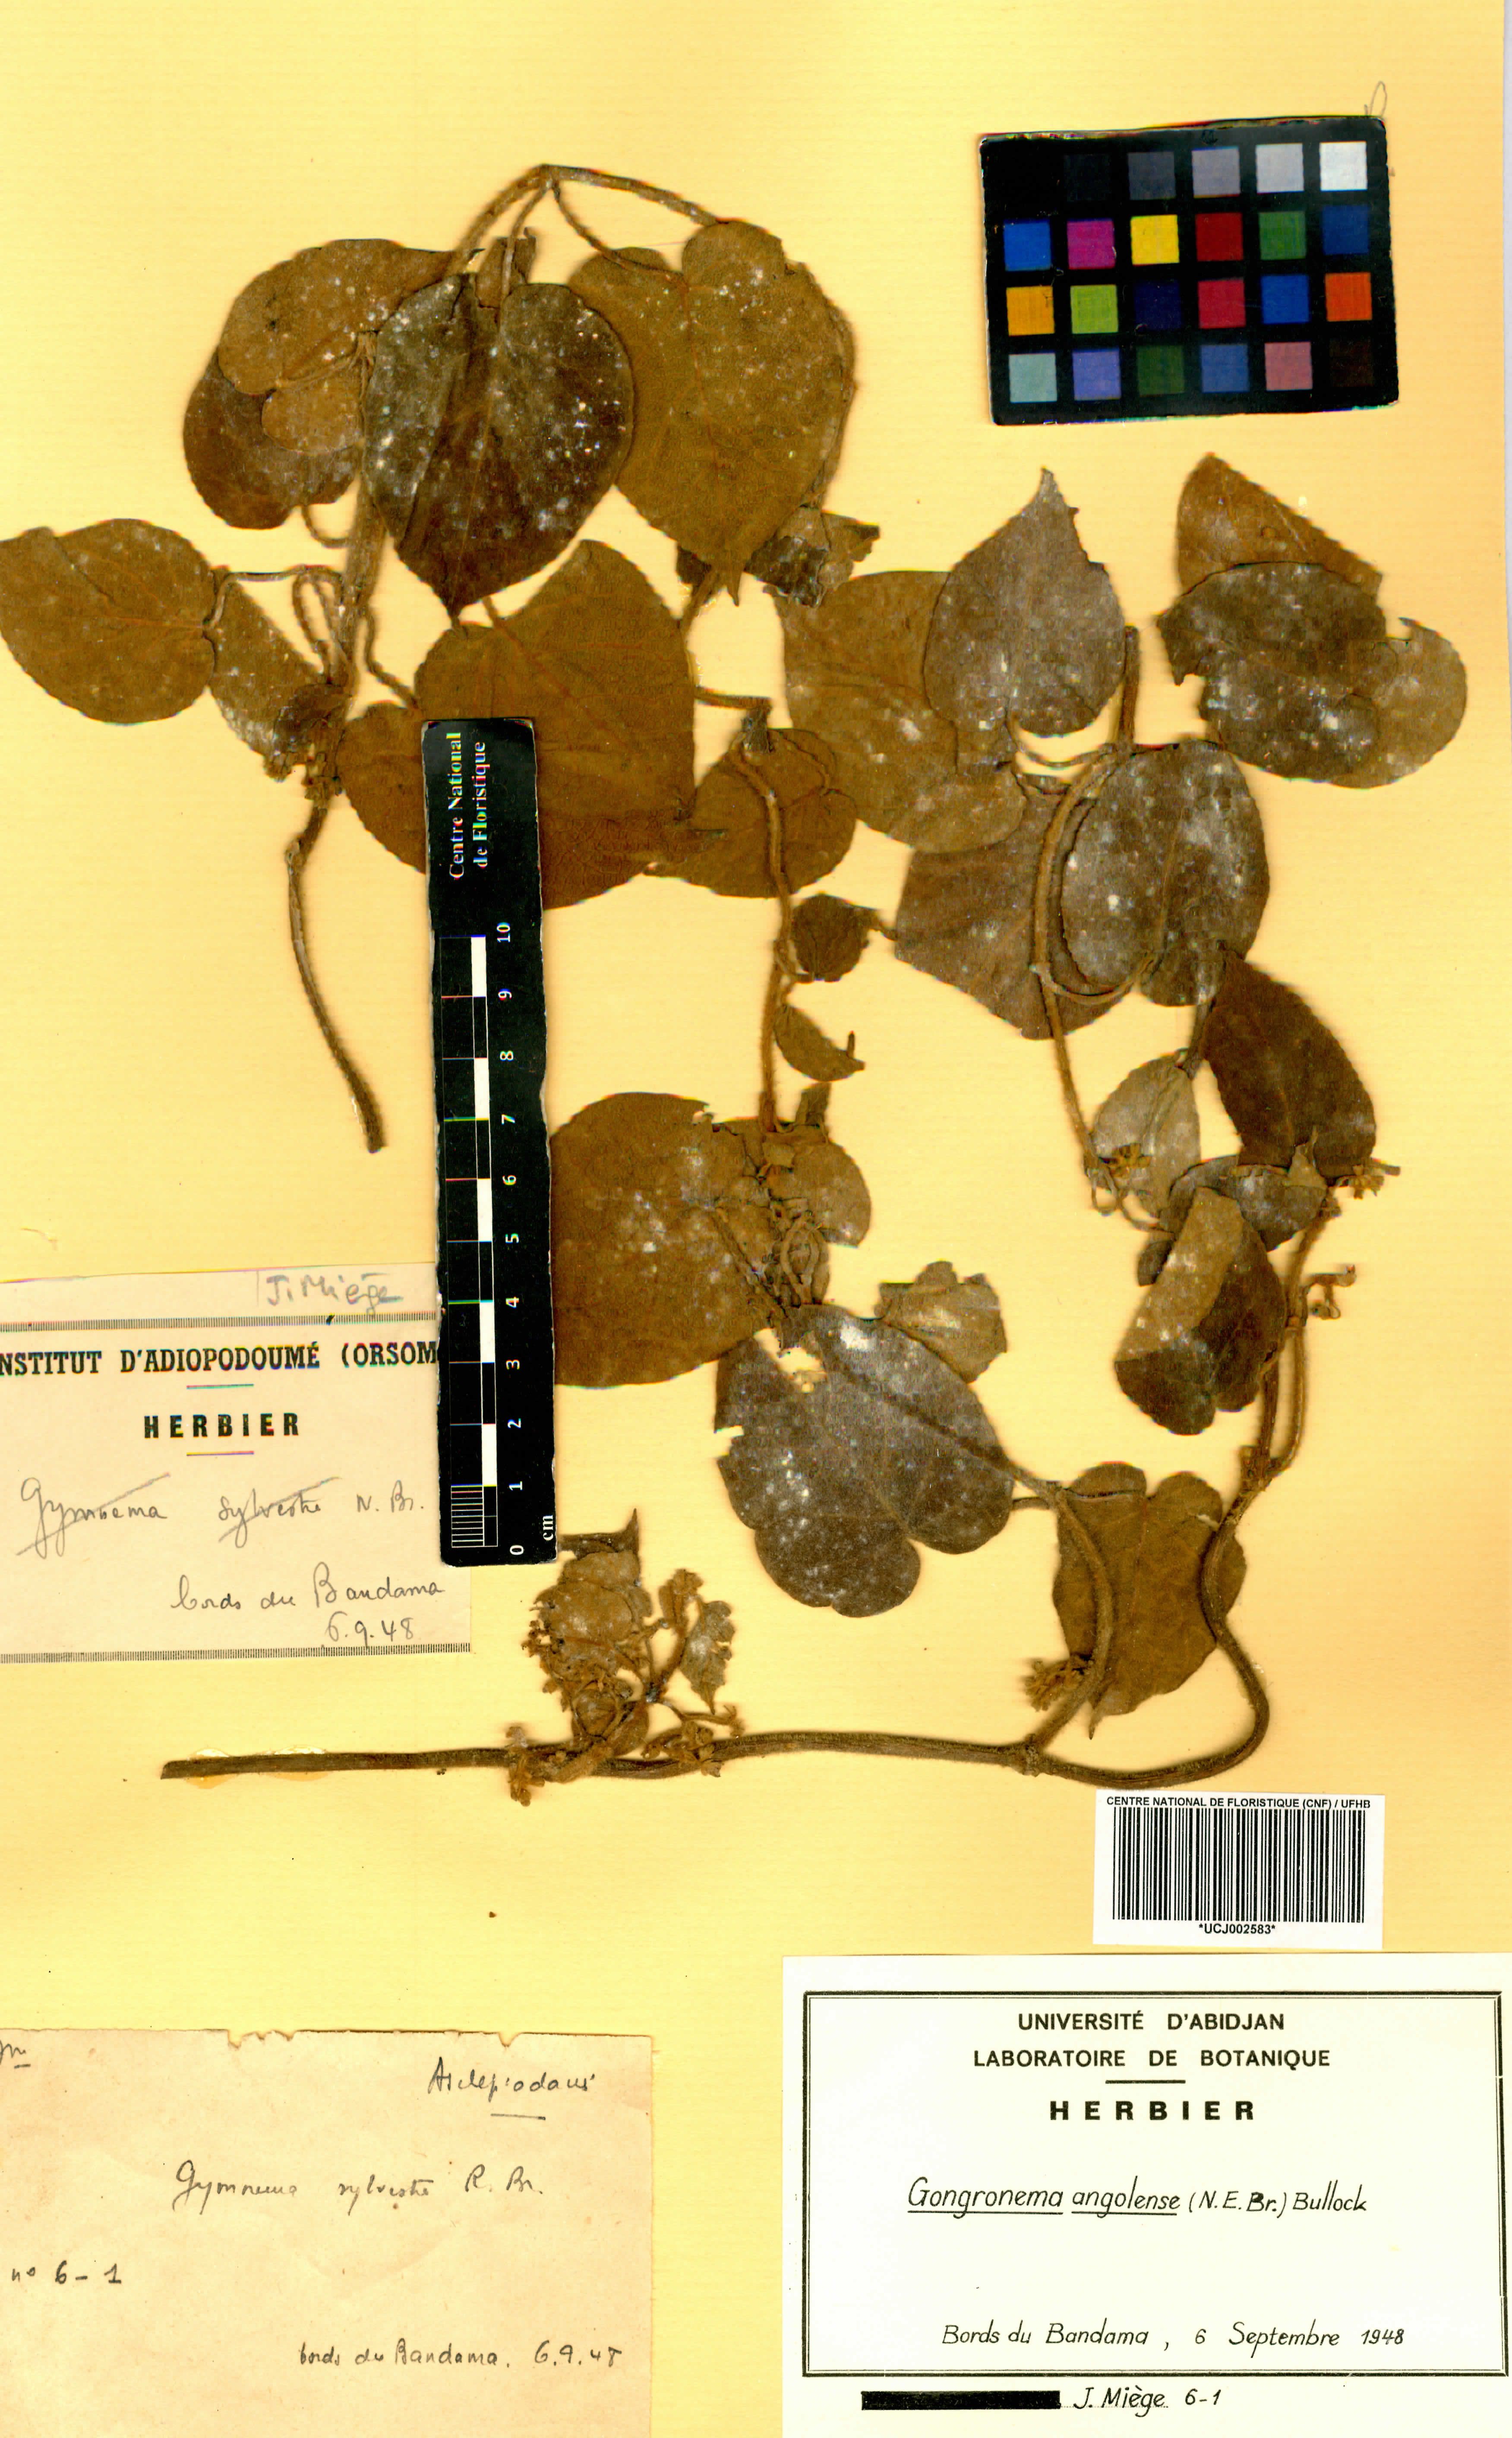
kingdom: Plantae
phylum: Tracheophyta
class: Magnoliopsida
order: Gentianales
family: Apocynaceae
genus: Gongronemopsis
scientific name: Gongronemopsis angolensis
